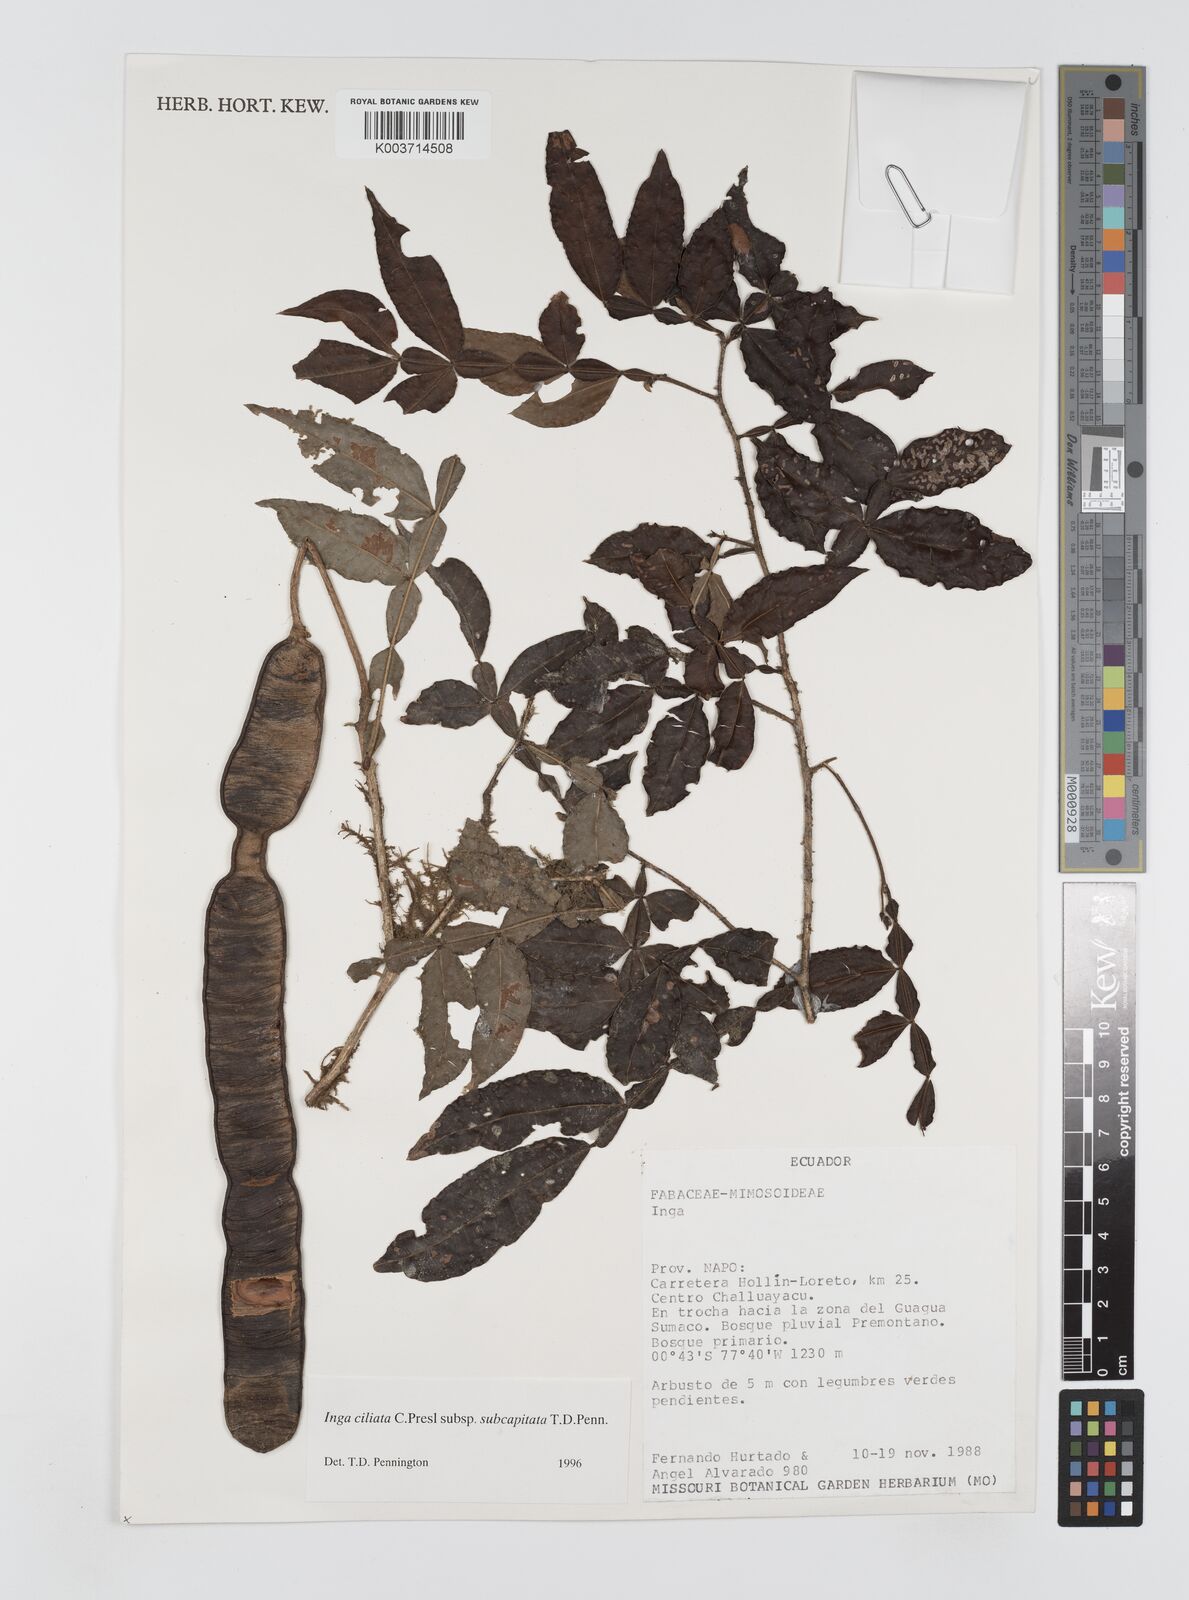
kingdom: Plantae
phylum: Tracheophyta
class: Magnoliopsida
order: Fabales
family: Fabaceae
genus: Inga
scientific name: Inga ciliata
